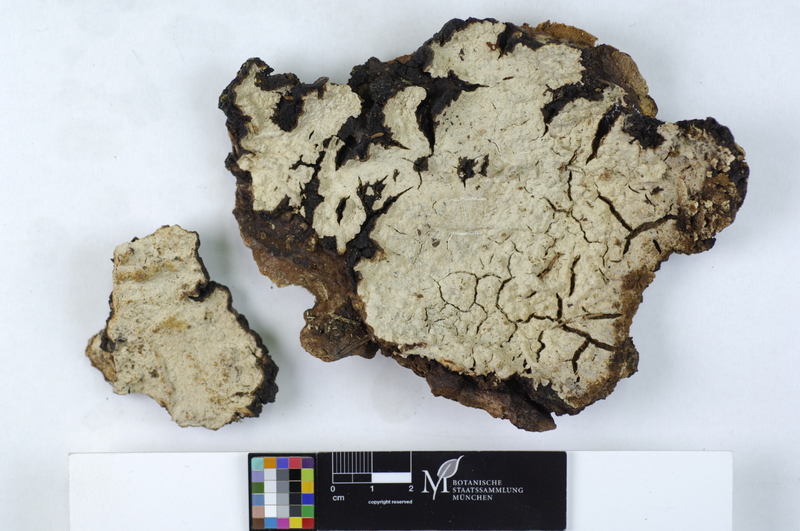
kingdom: Fungi
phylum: Basidiomycota
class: Agaricomycetes
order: Agaricales
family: Cystostereaceae
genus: Cystostereum
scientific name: Cystostereum murrayi
